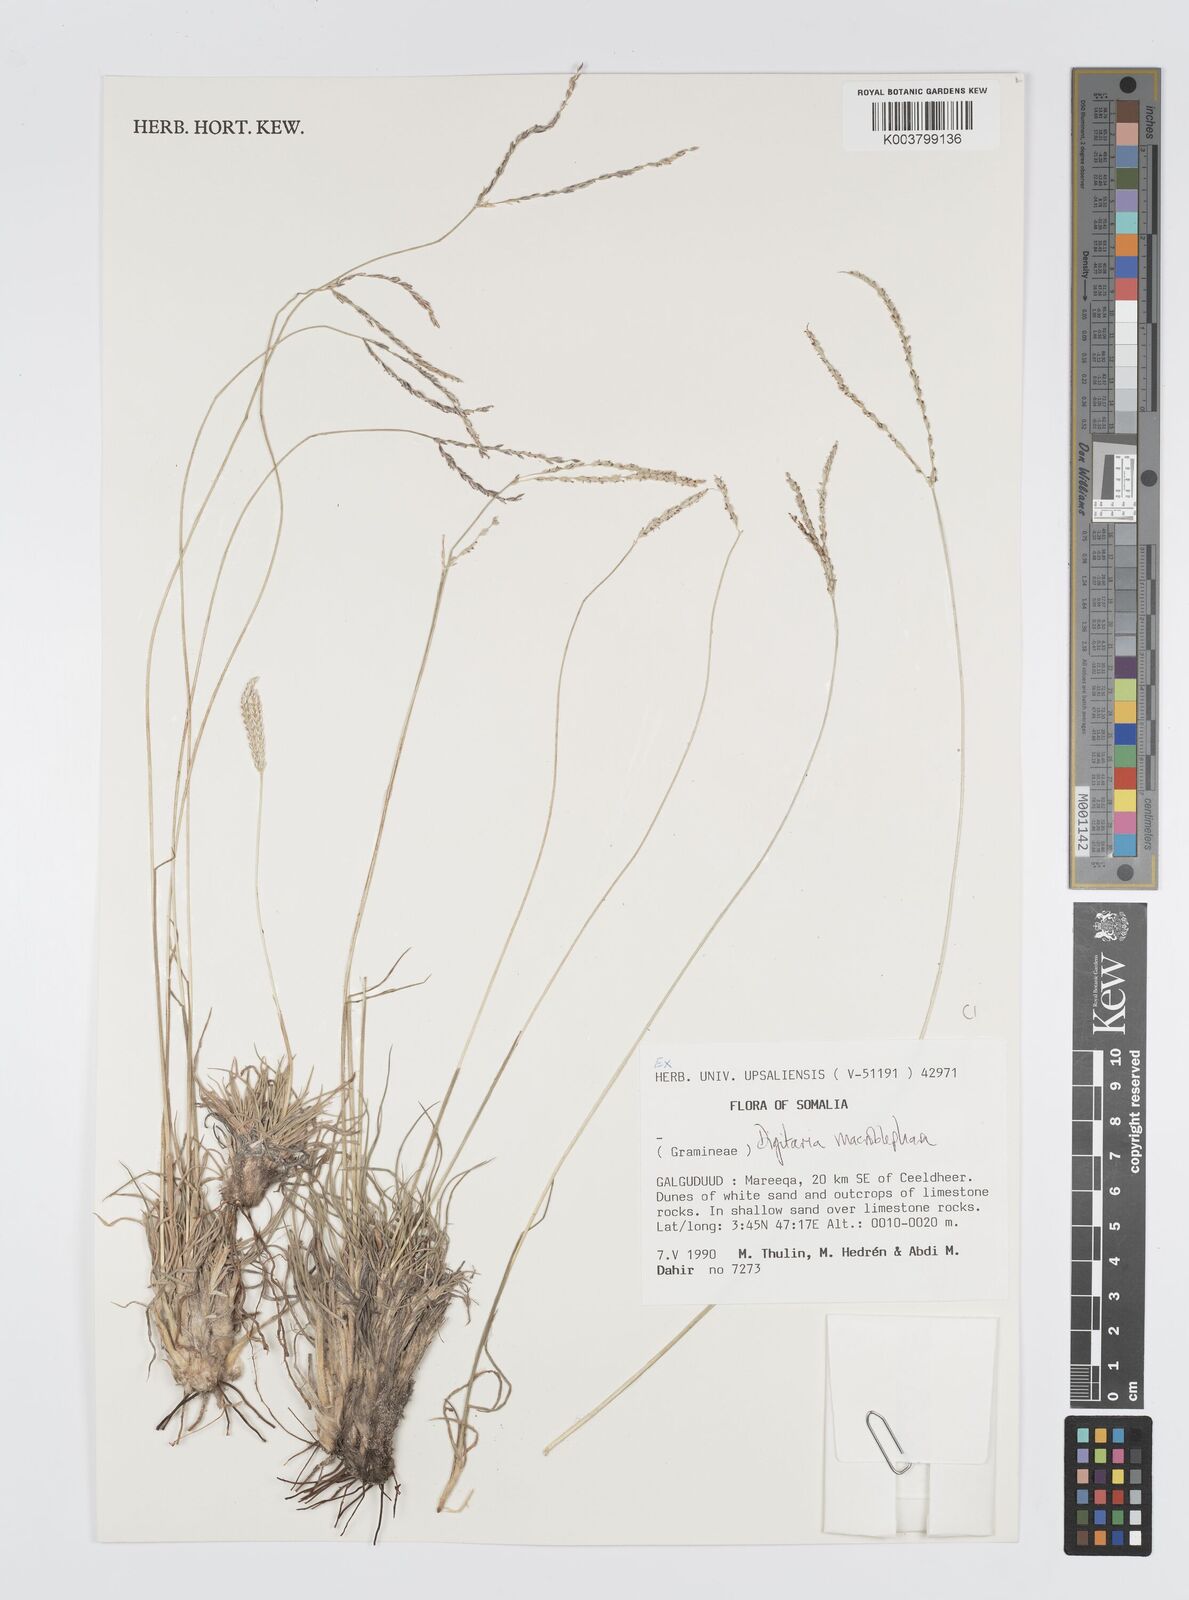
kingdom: Plantae
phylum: Tracheophyta
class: Liliopsida
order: Poales
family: Poaceae
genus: Digitaria
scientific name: Digitaria macroblephara
